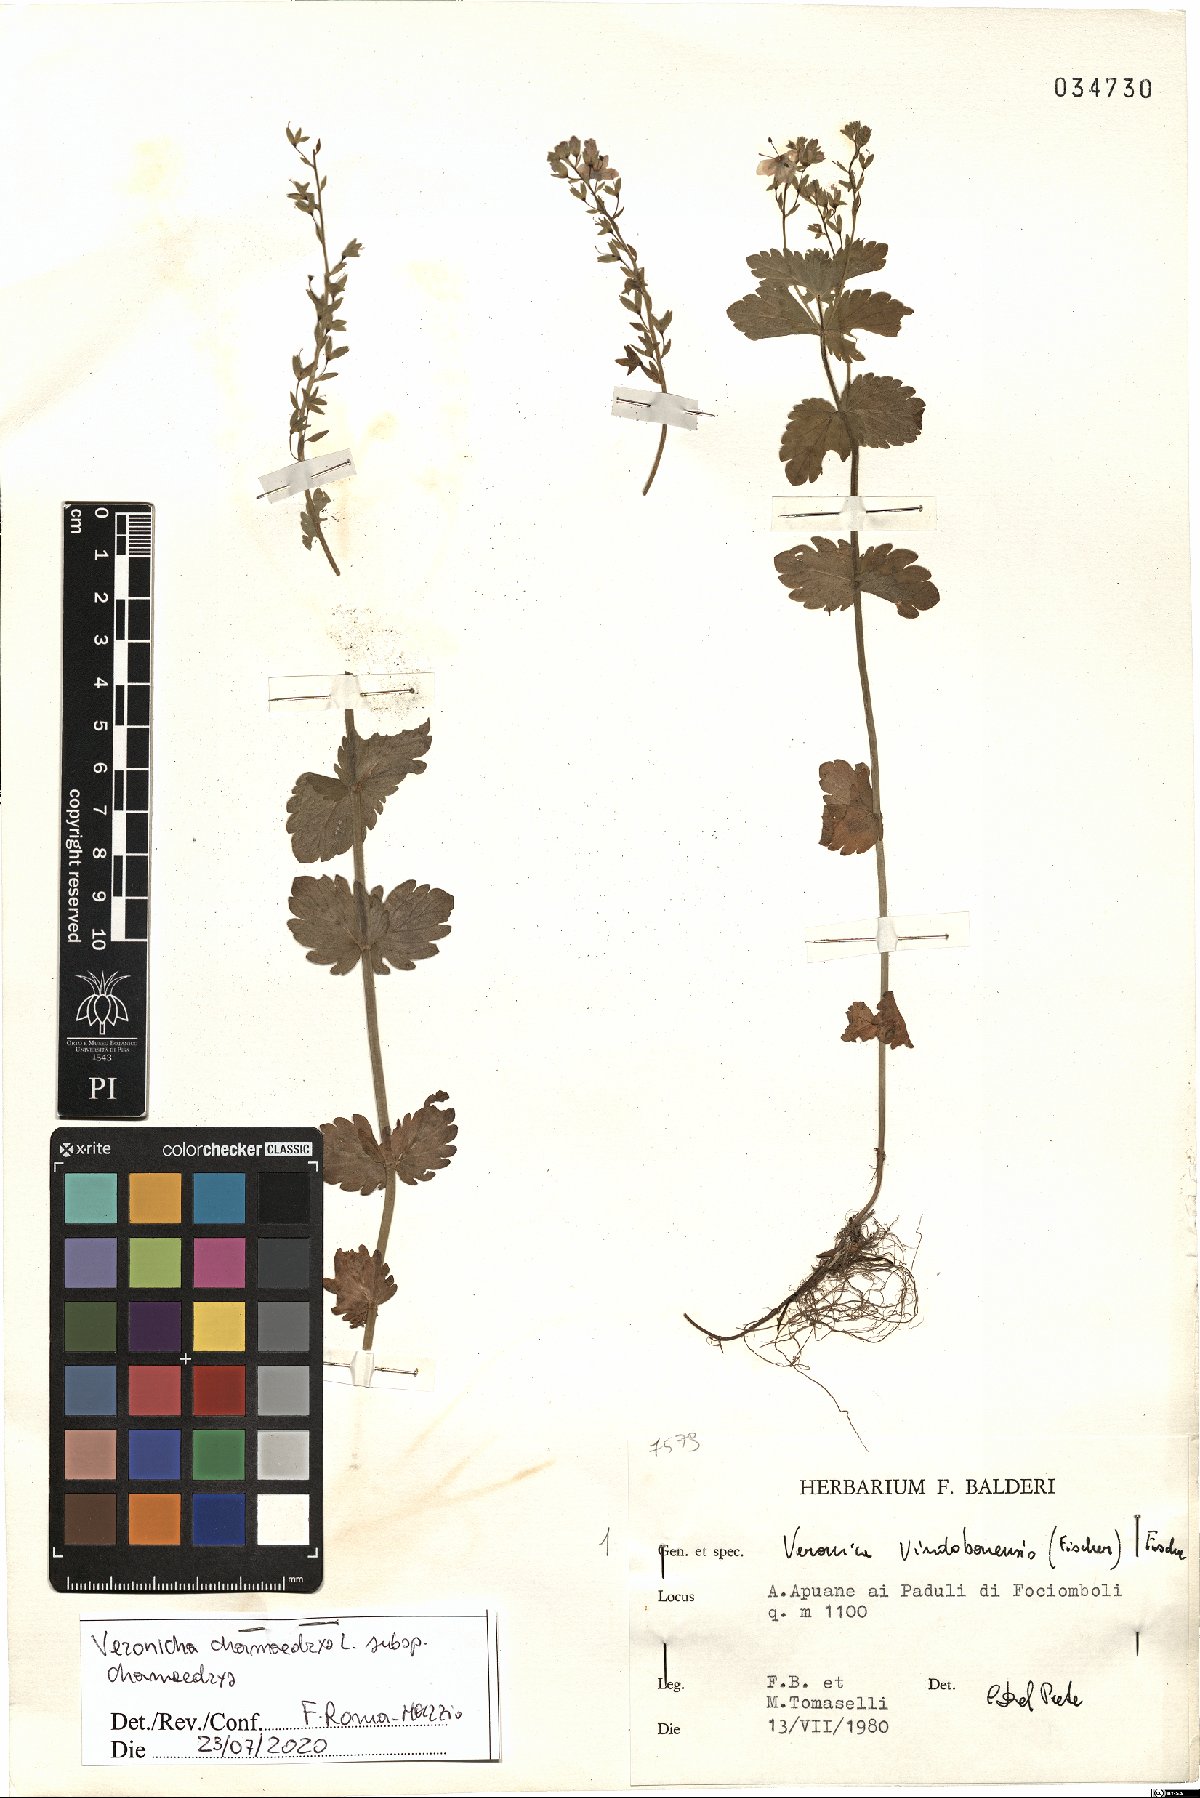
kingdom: Plantae
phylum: Tracheophyta
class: Magnoliopsida
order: Lamiales
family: Plantaginaceae
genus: Veronica
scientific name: Veronica chamaedrys
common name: Germander speedwell
